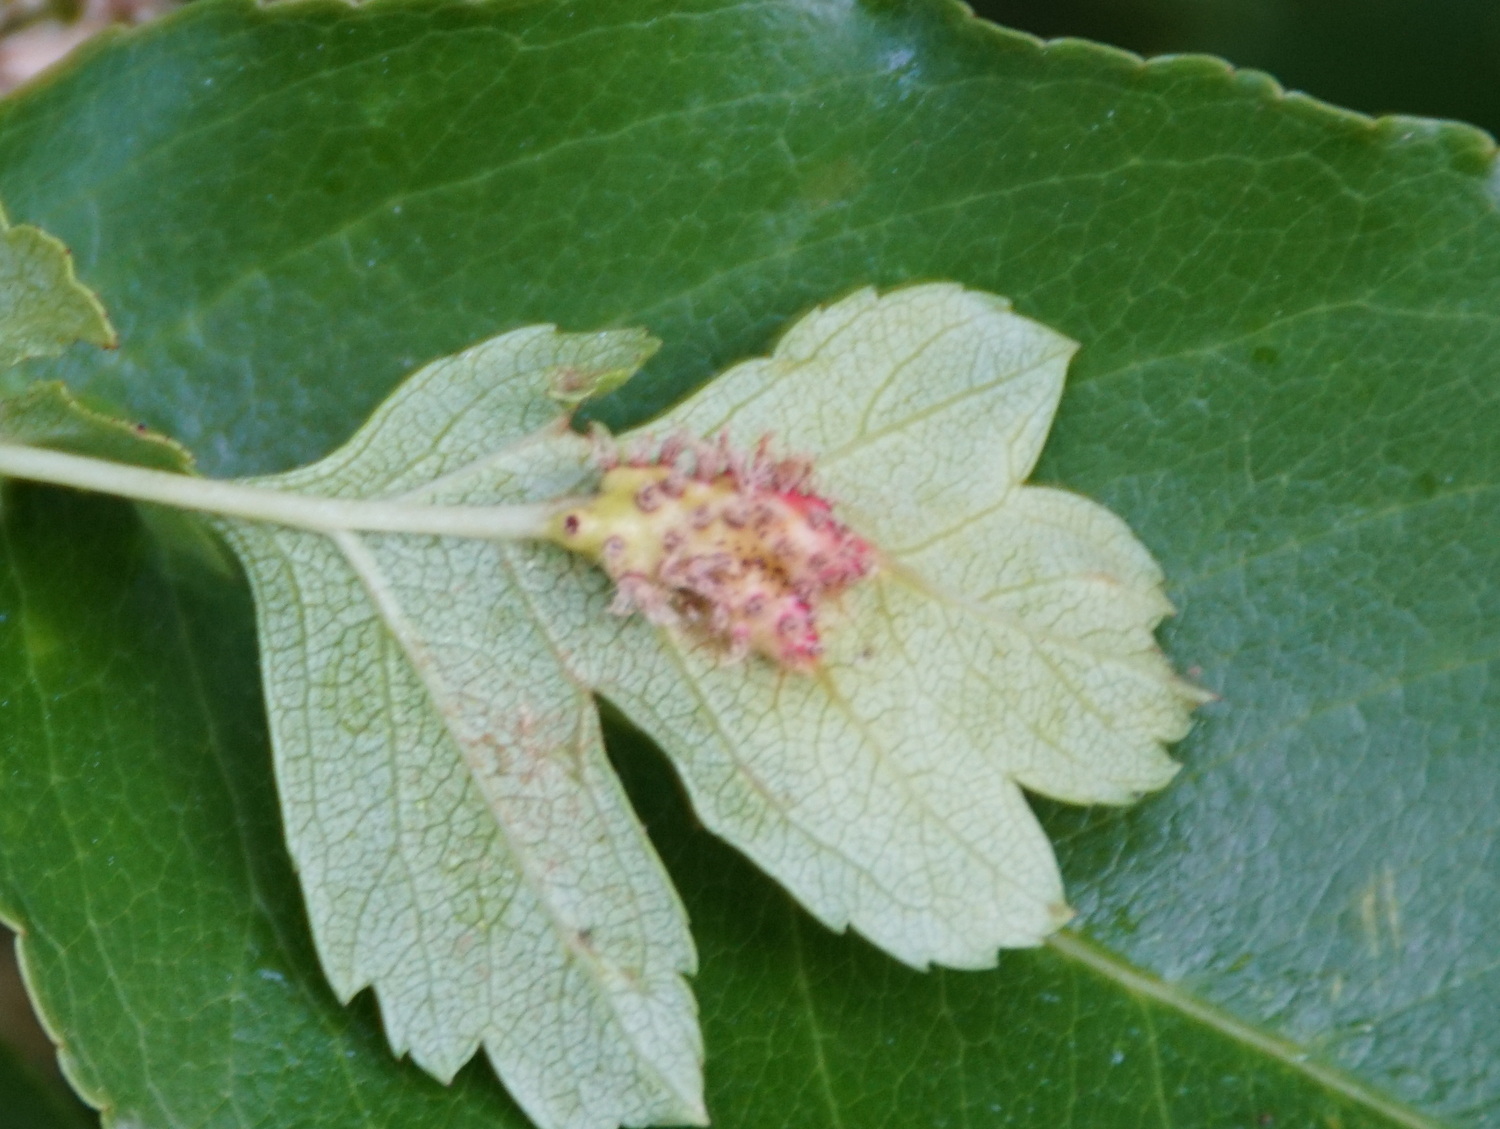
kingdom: Fungi
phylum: Basidiomycota
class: Pucciniomycetes
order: Pucciniales
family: Gymnosporangiaceae
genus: Gymnosporangium
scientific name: Gymnosporangium
